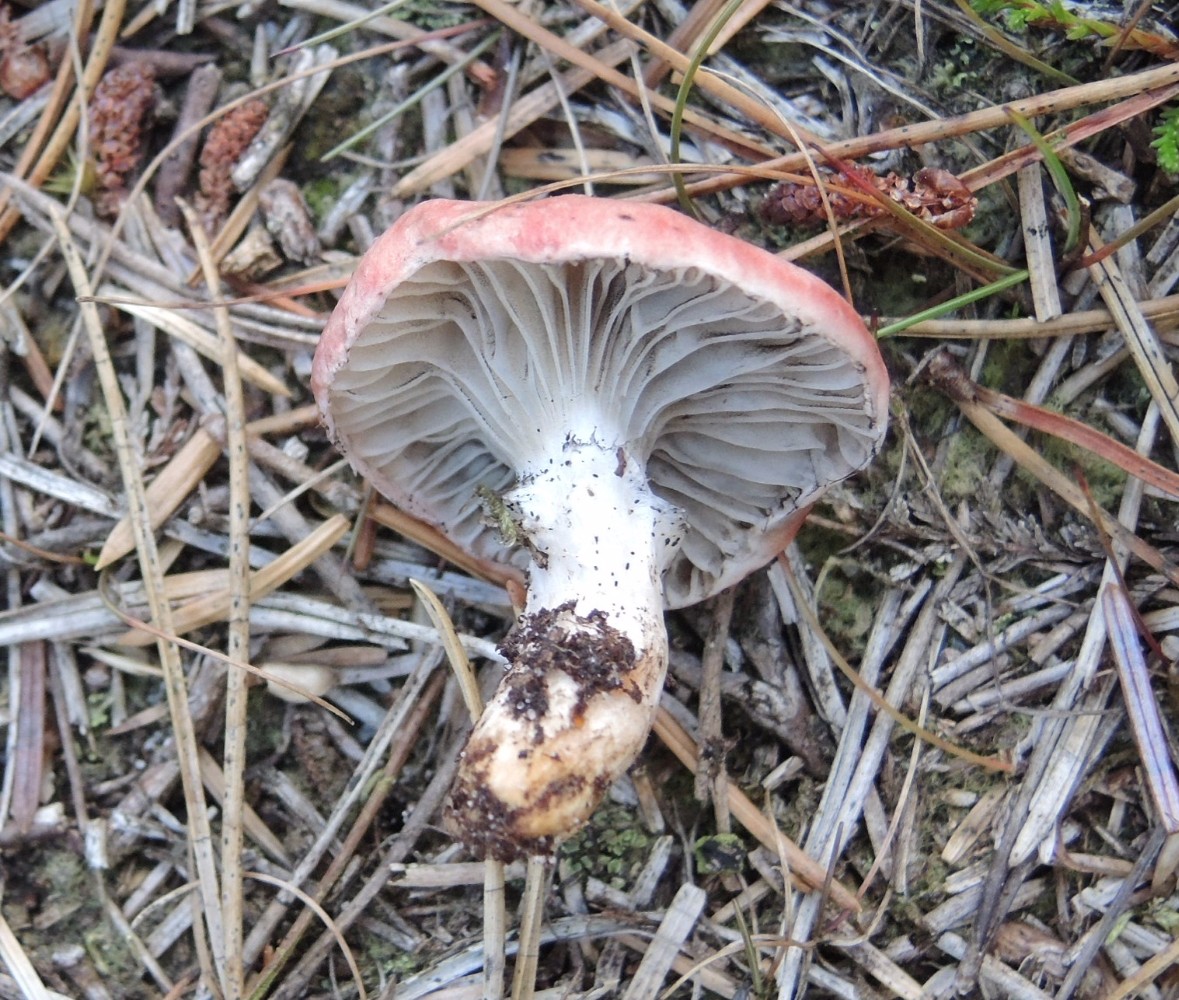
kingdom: Fungi
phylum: Basidiomycota
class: Agaricomycetes
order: Boletales
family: Gomphidiaceae
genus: Gomphidius
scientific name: Gomphidius roseus
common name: rosenrød slimslør
